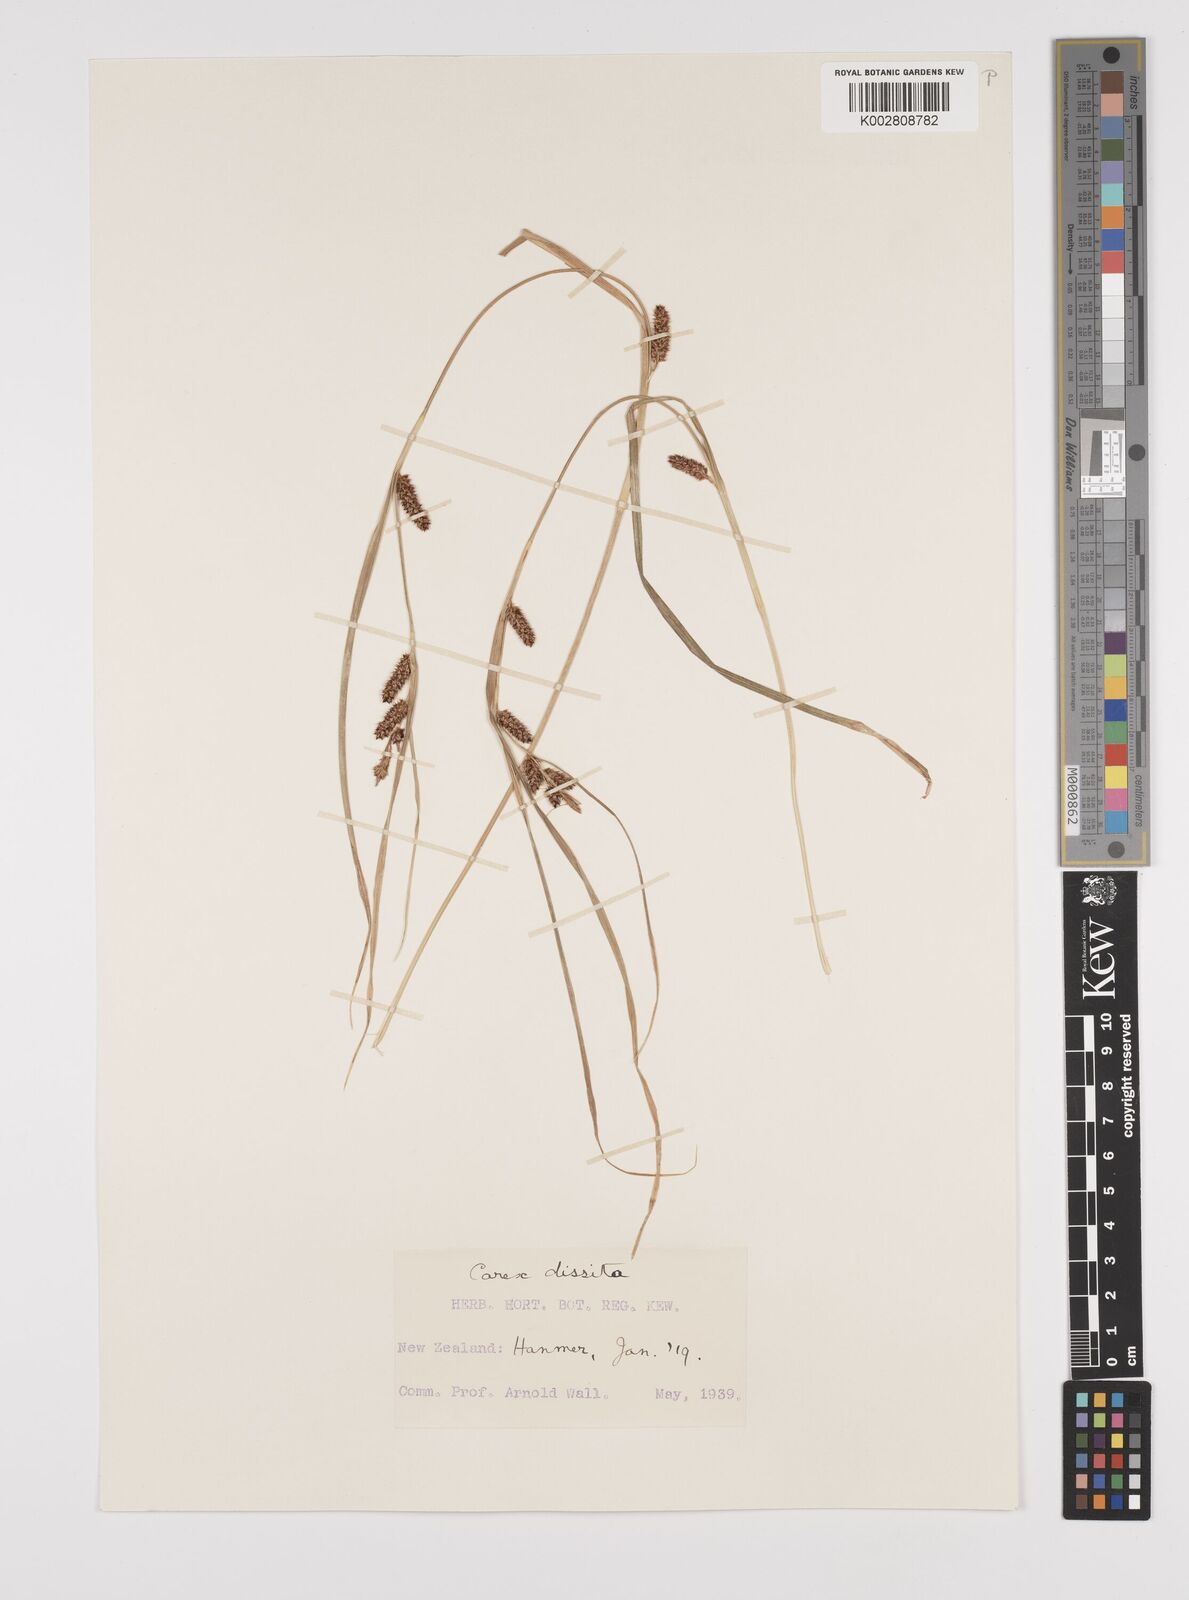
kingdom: Plantae
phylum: Tracheophyta
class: Liliopsida
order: Poales
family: Cyperaceae
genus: Carex
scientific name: Carex dissita
